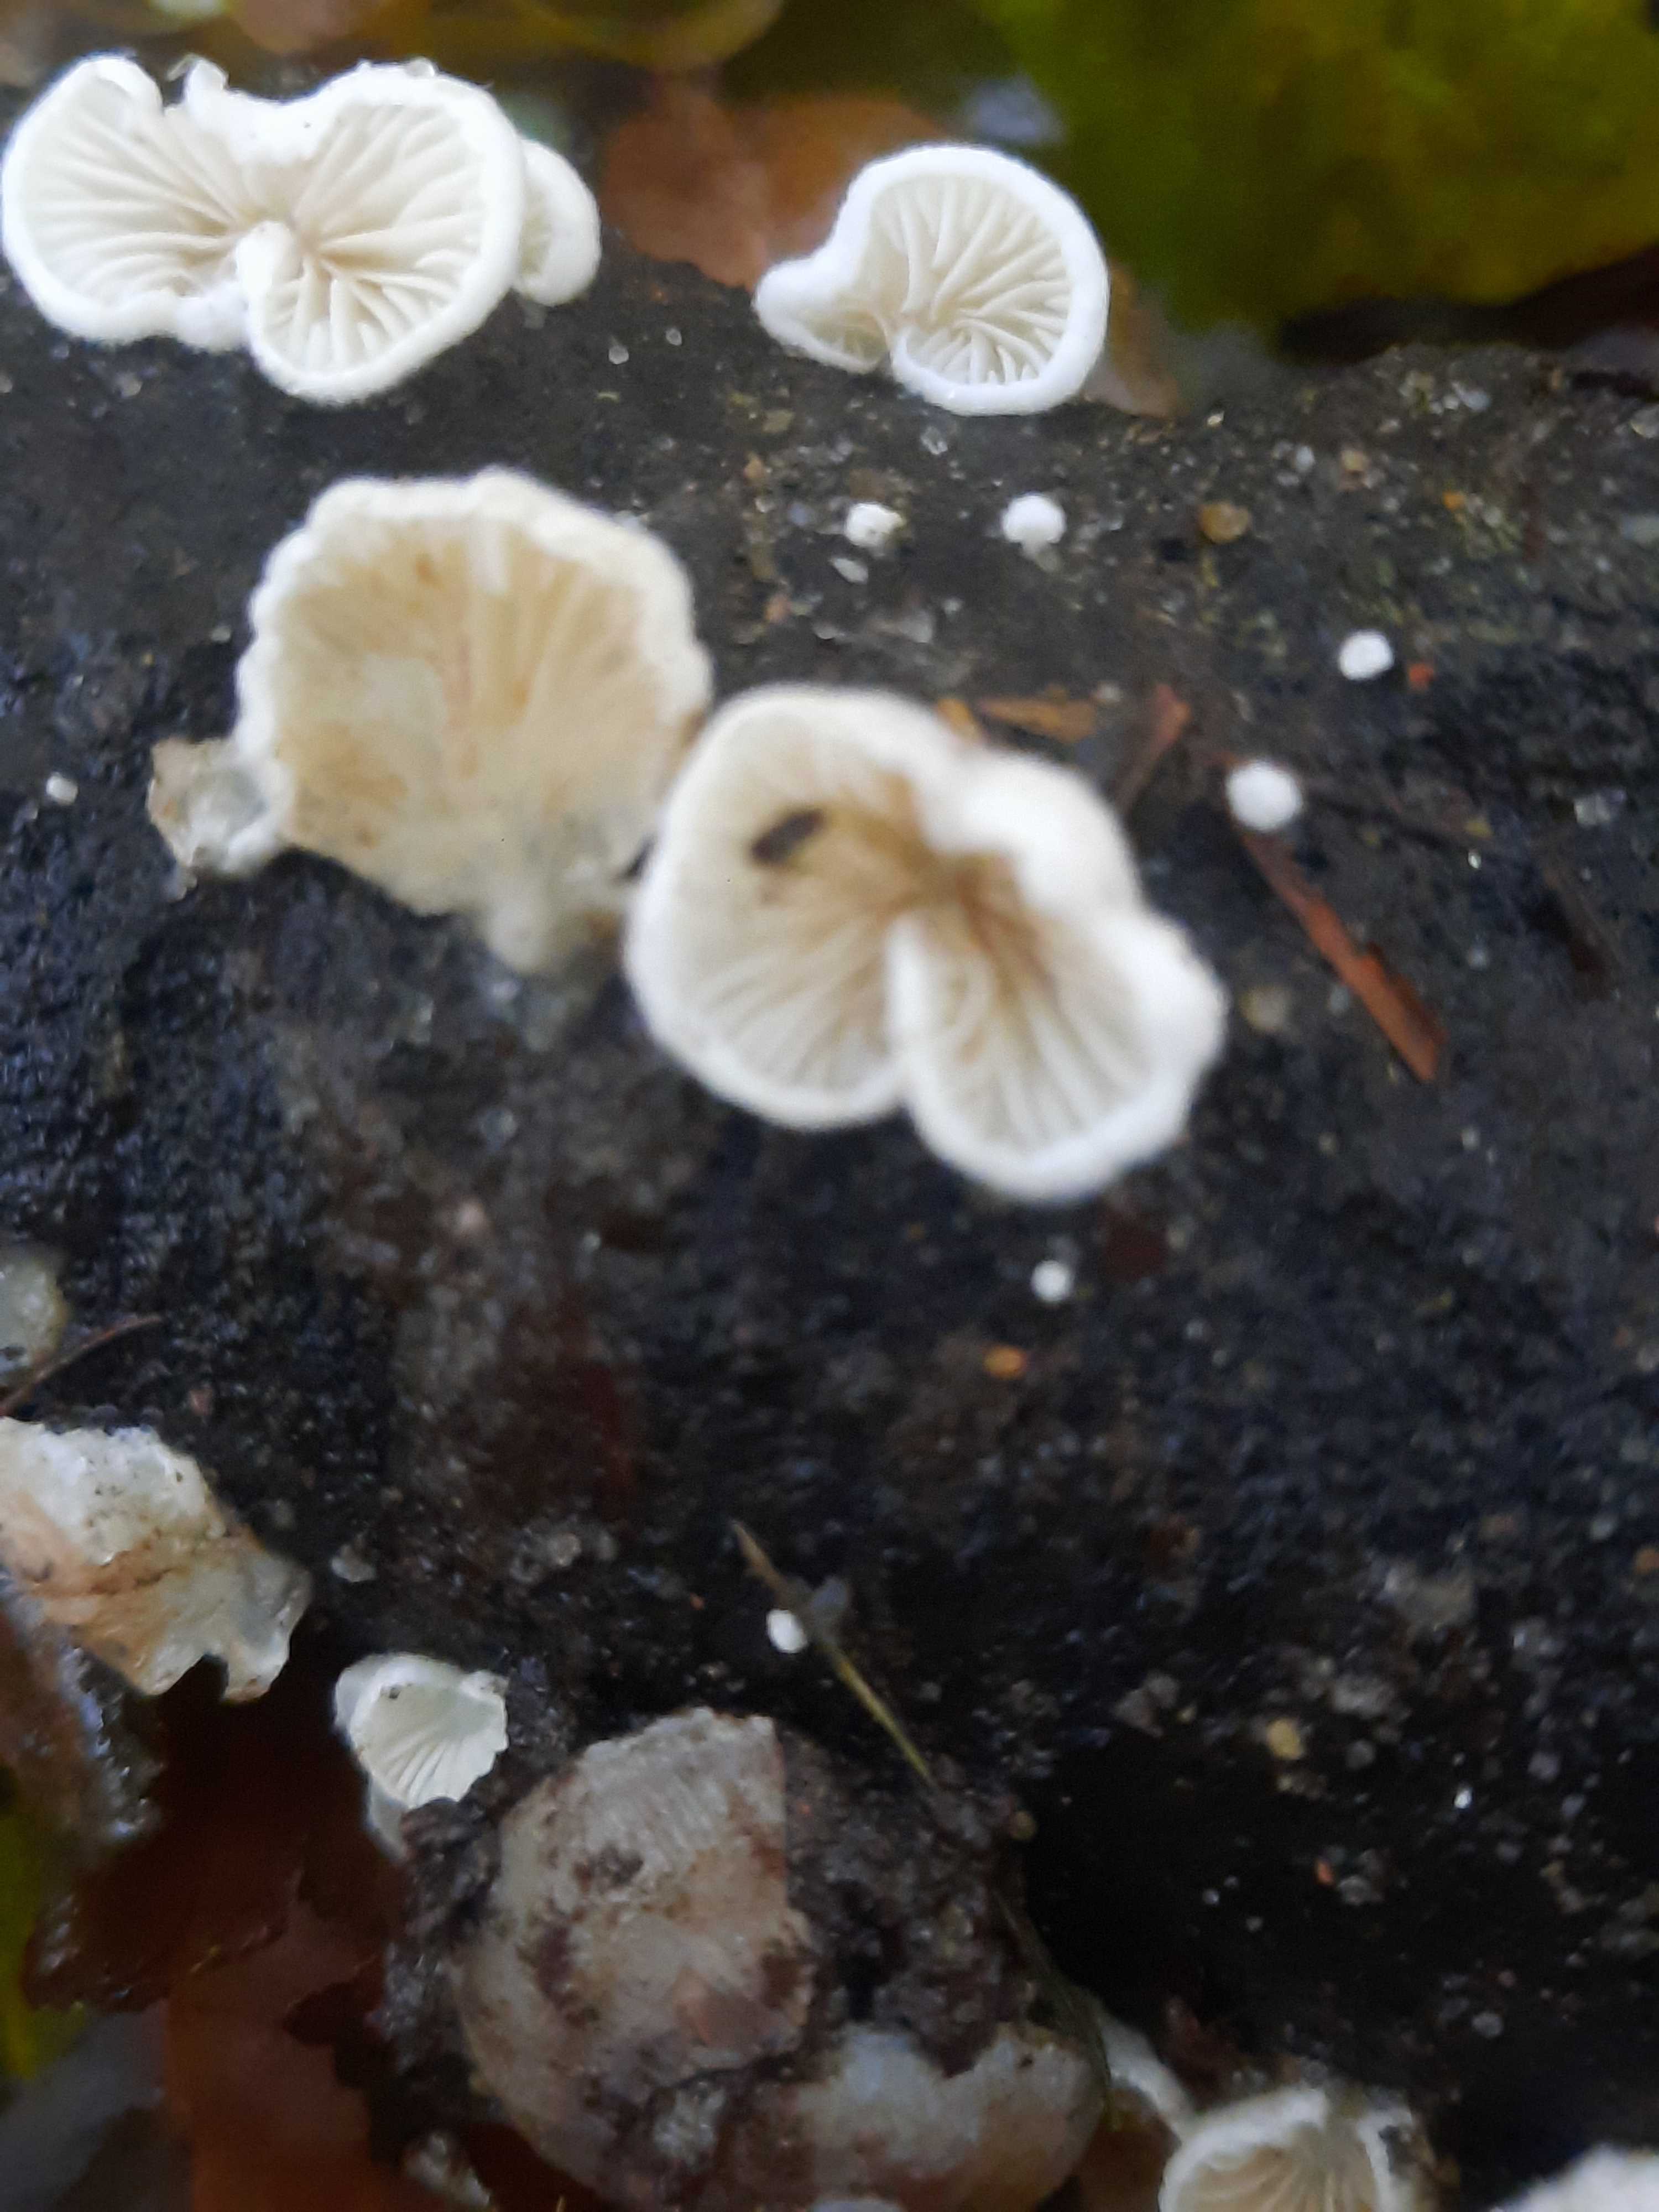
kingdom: Fungi
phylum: Basidiomycota
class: Agaricomycetes
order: Amylocorticiales
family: Amylocorticiaceae
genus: Plicaturopsis
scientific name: Plicaturopsis crispa
